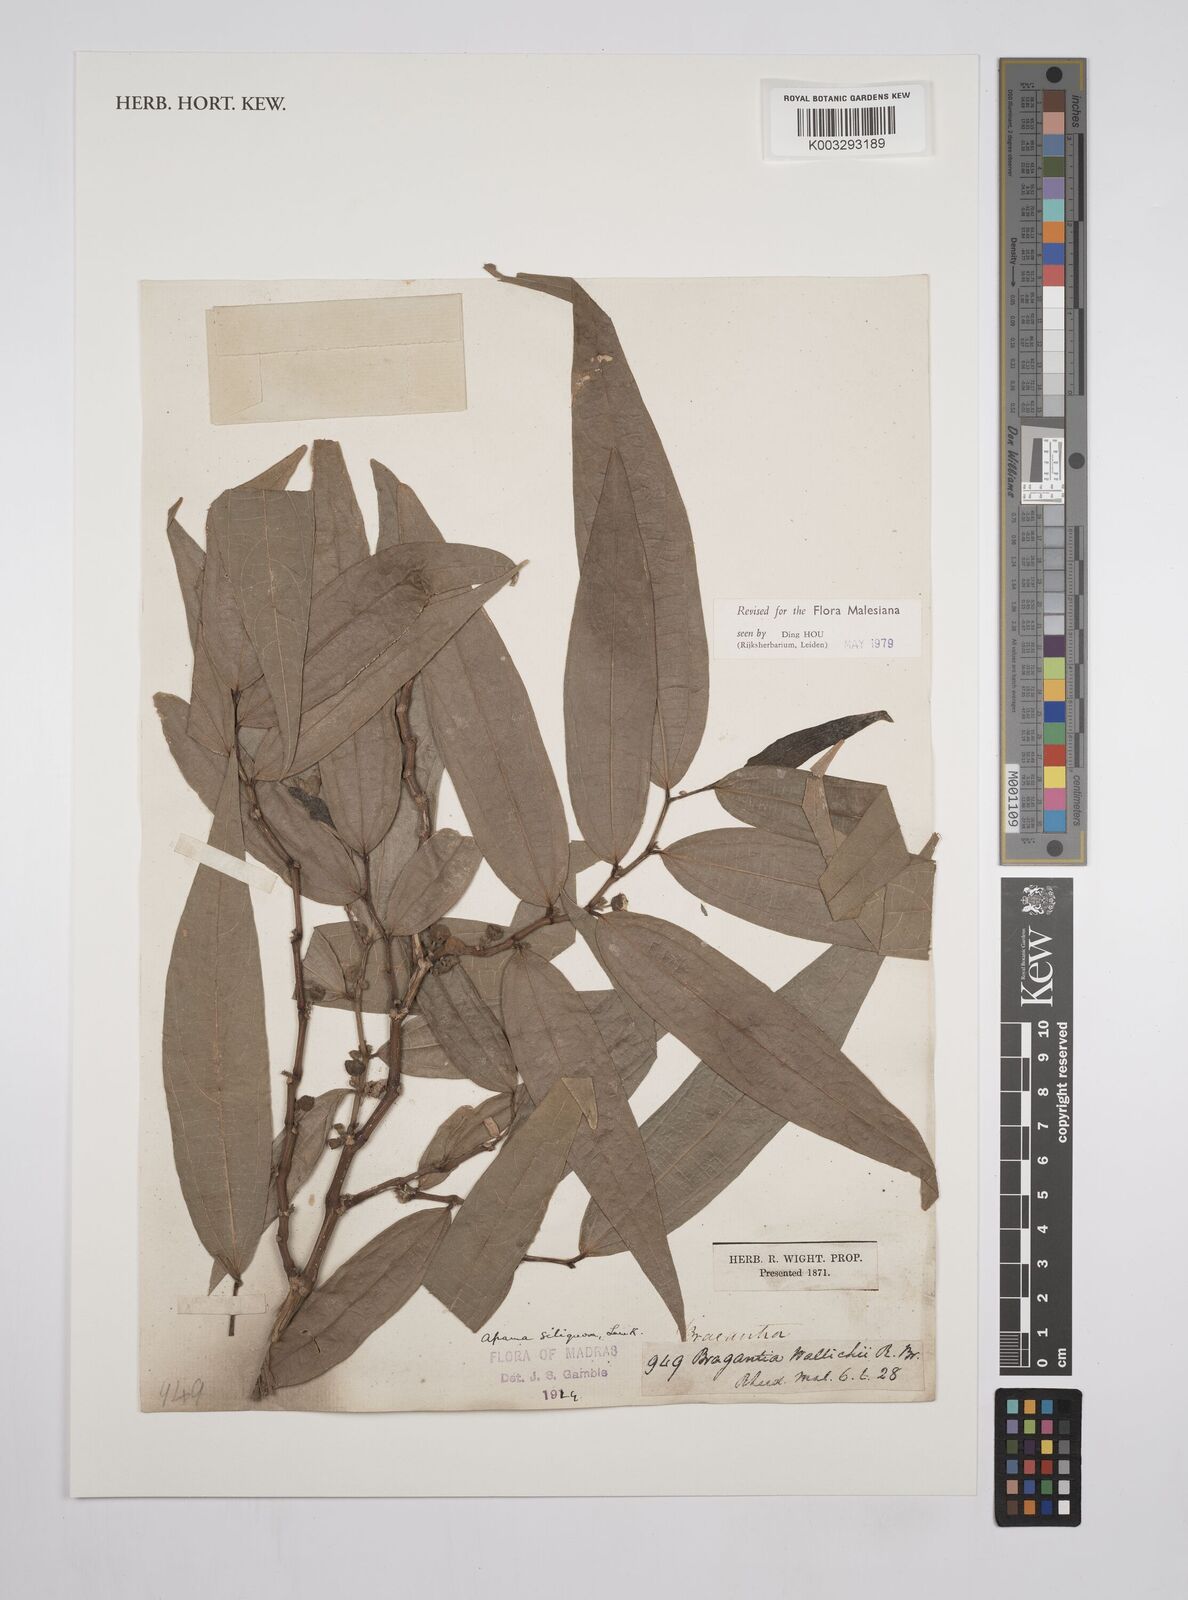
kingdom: Plantae
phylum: Tracheophyta
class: Magnoliopsida
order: Piperales
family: Aristolochiaceae
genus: Thottea
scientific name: Thottea siliquosa
